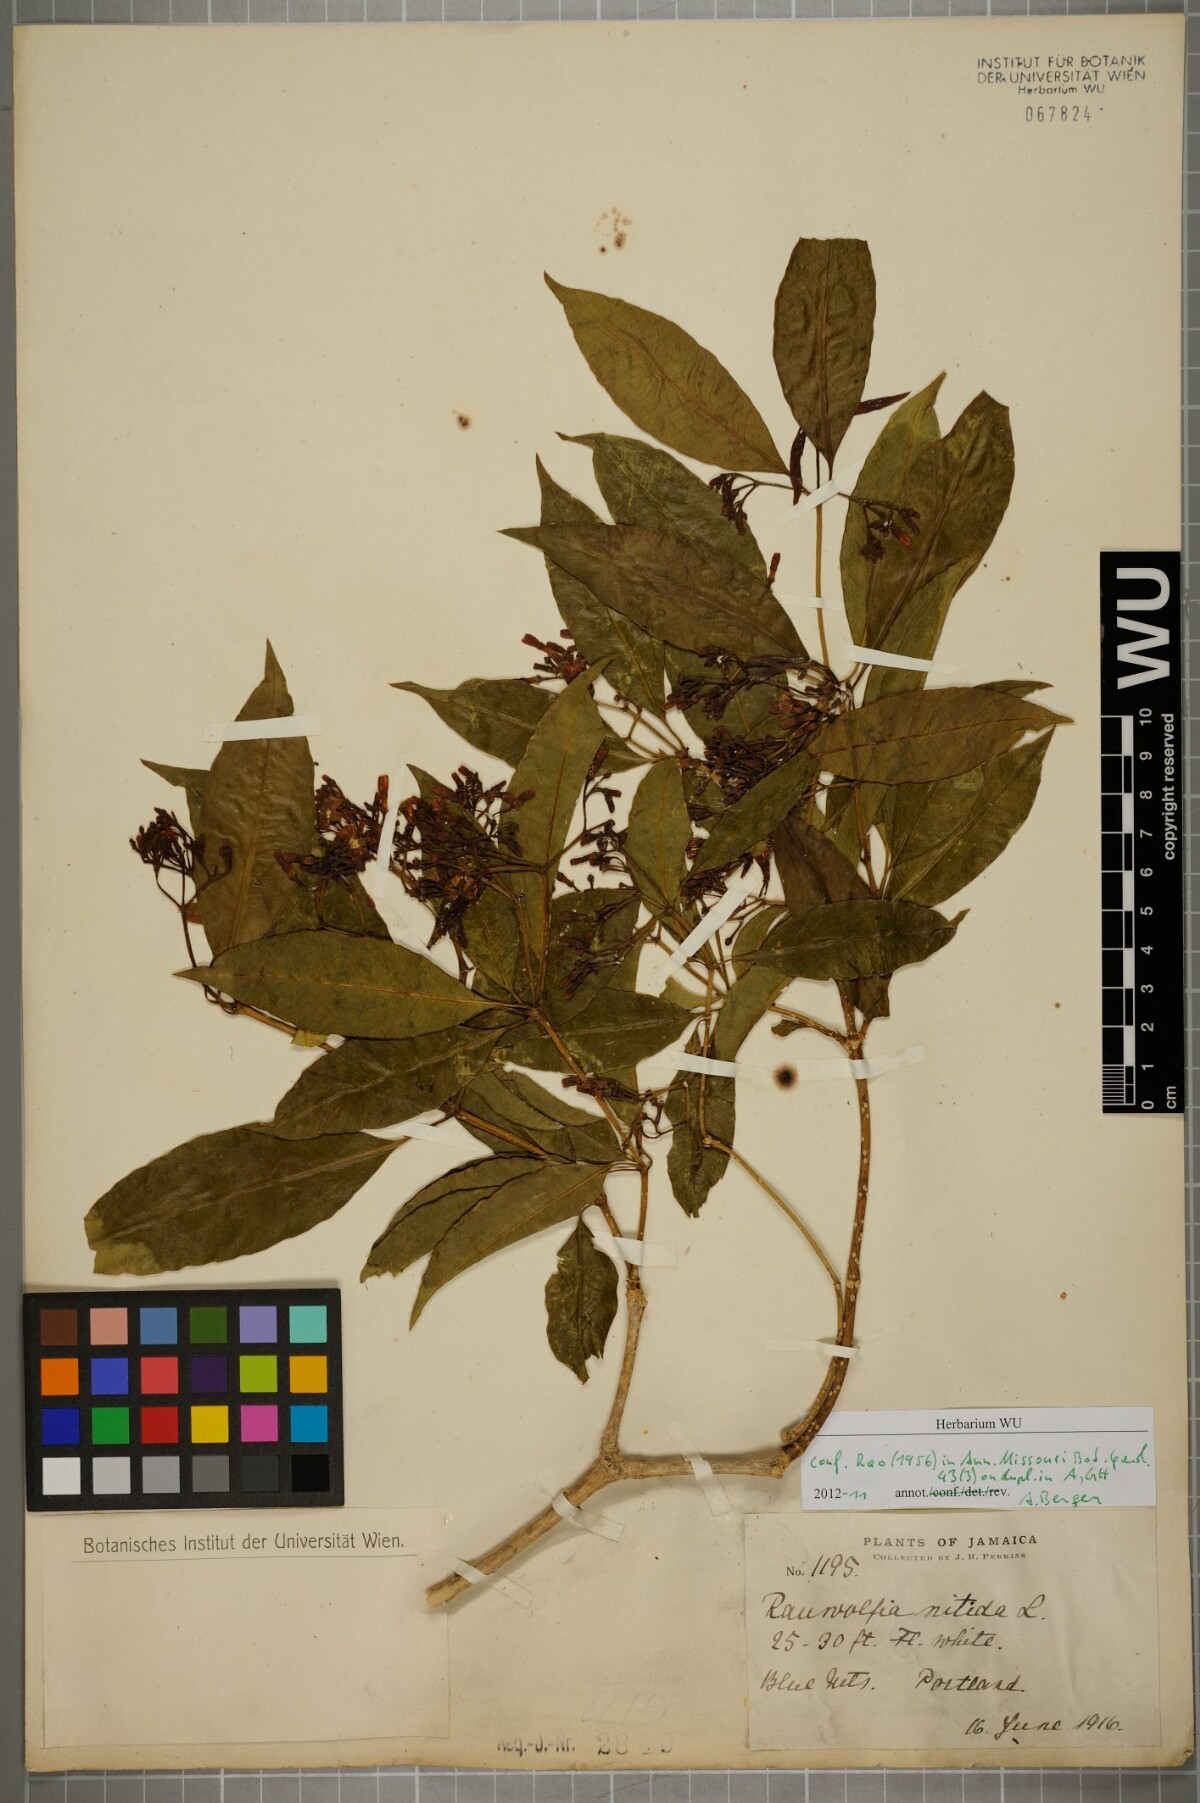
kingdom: Plantae
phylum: Tracheophyta
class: Magnoliopsida
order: Gentianales
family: Apocynaceae
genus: Rauvolfia
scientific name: Rauvolfia nitida
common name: Bitter-ash
